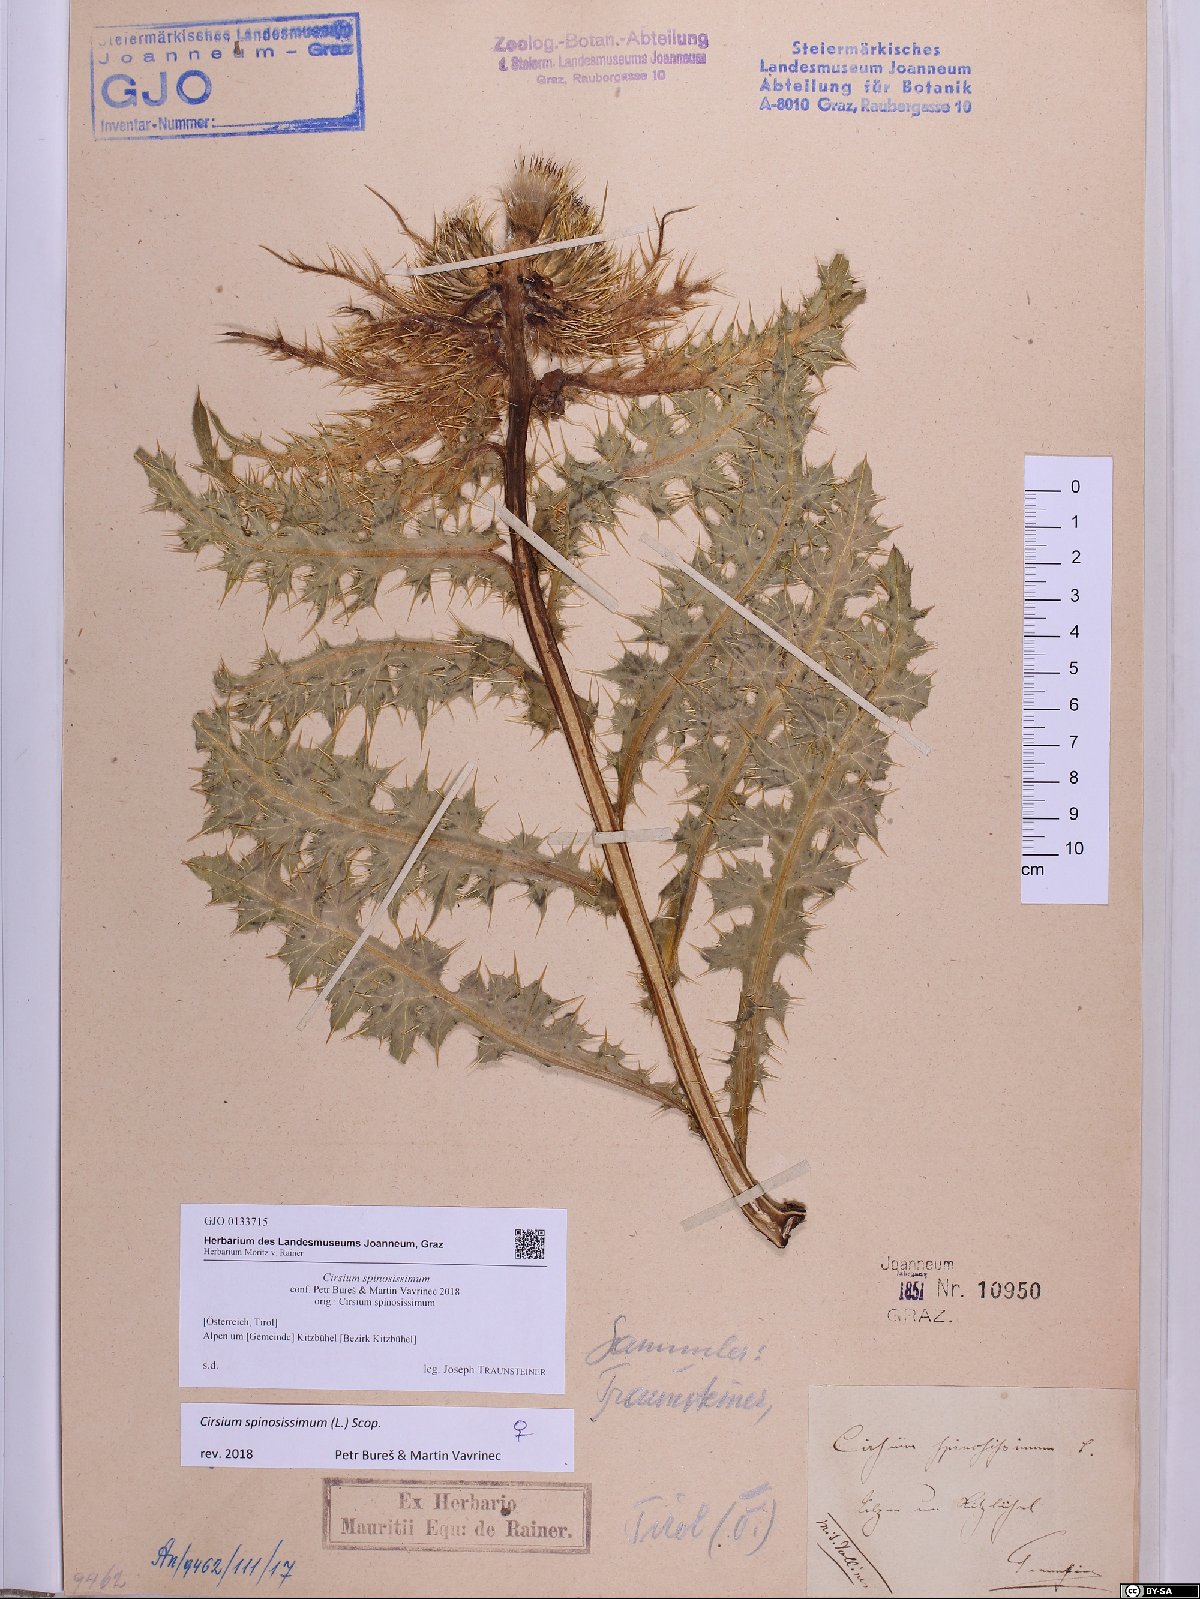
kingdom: Plantae
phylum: Tracheophyta
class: Magnoliopsida
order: Asterales
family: Asteraceae
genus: Cirsium
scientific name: Cirsium spinosissimum
